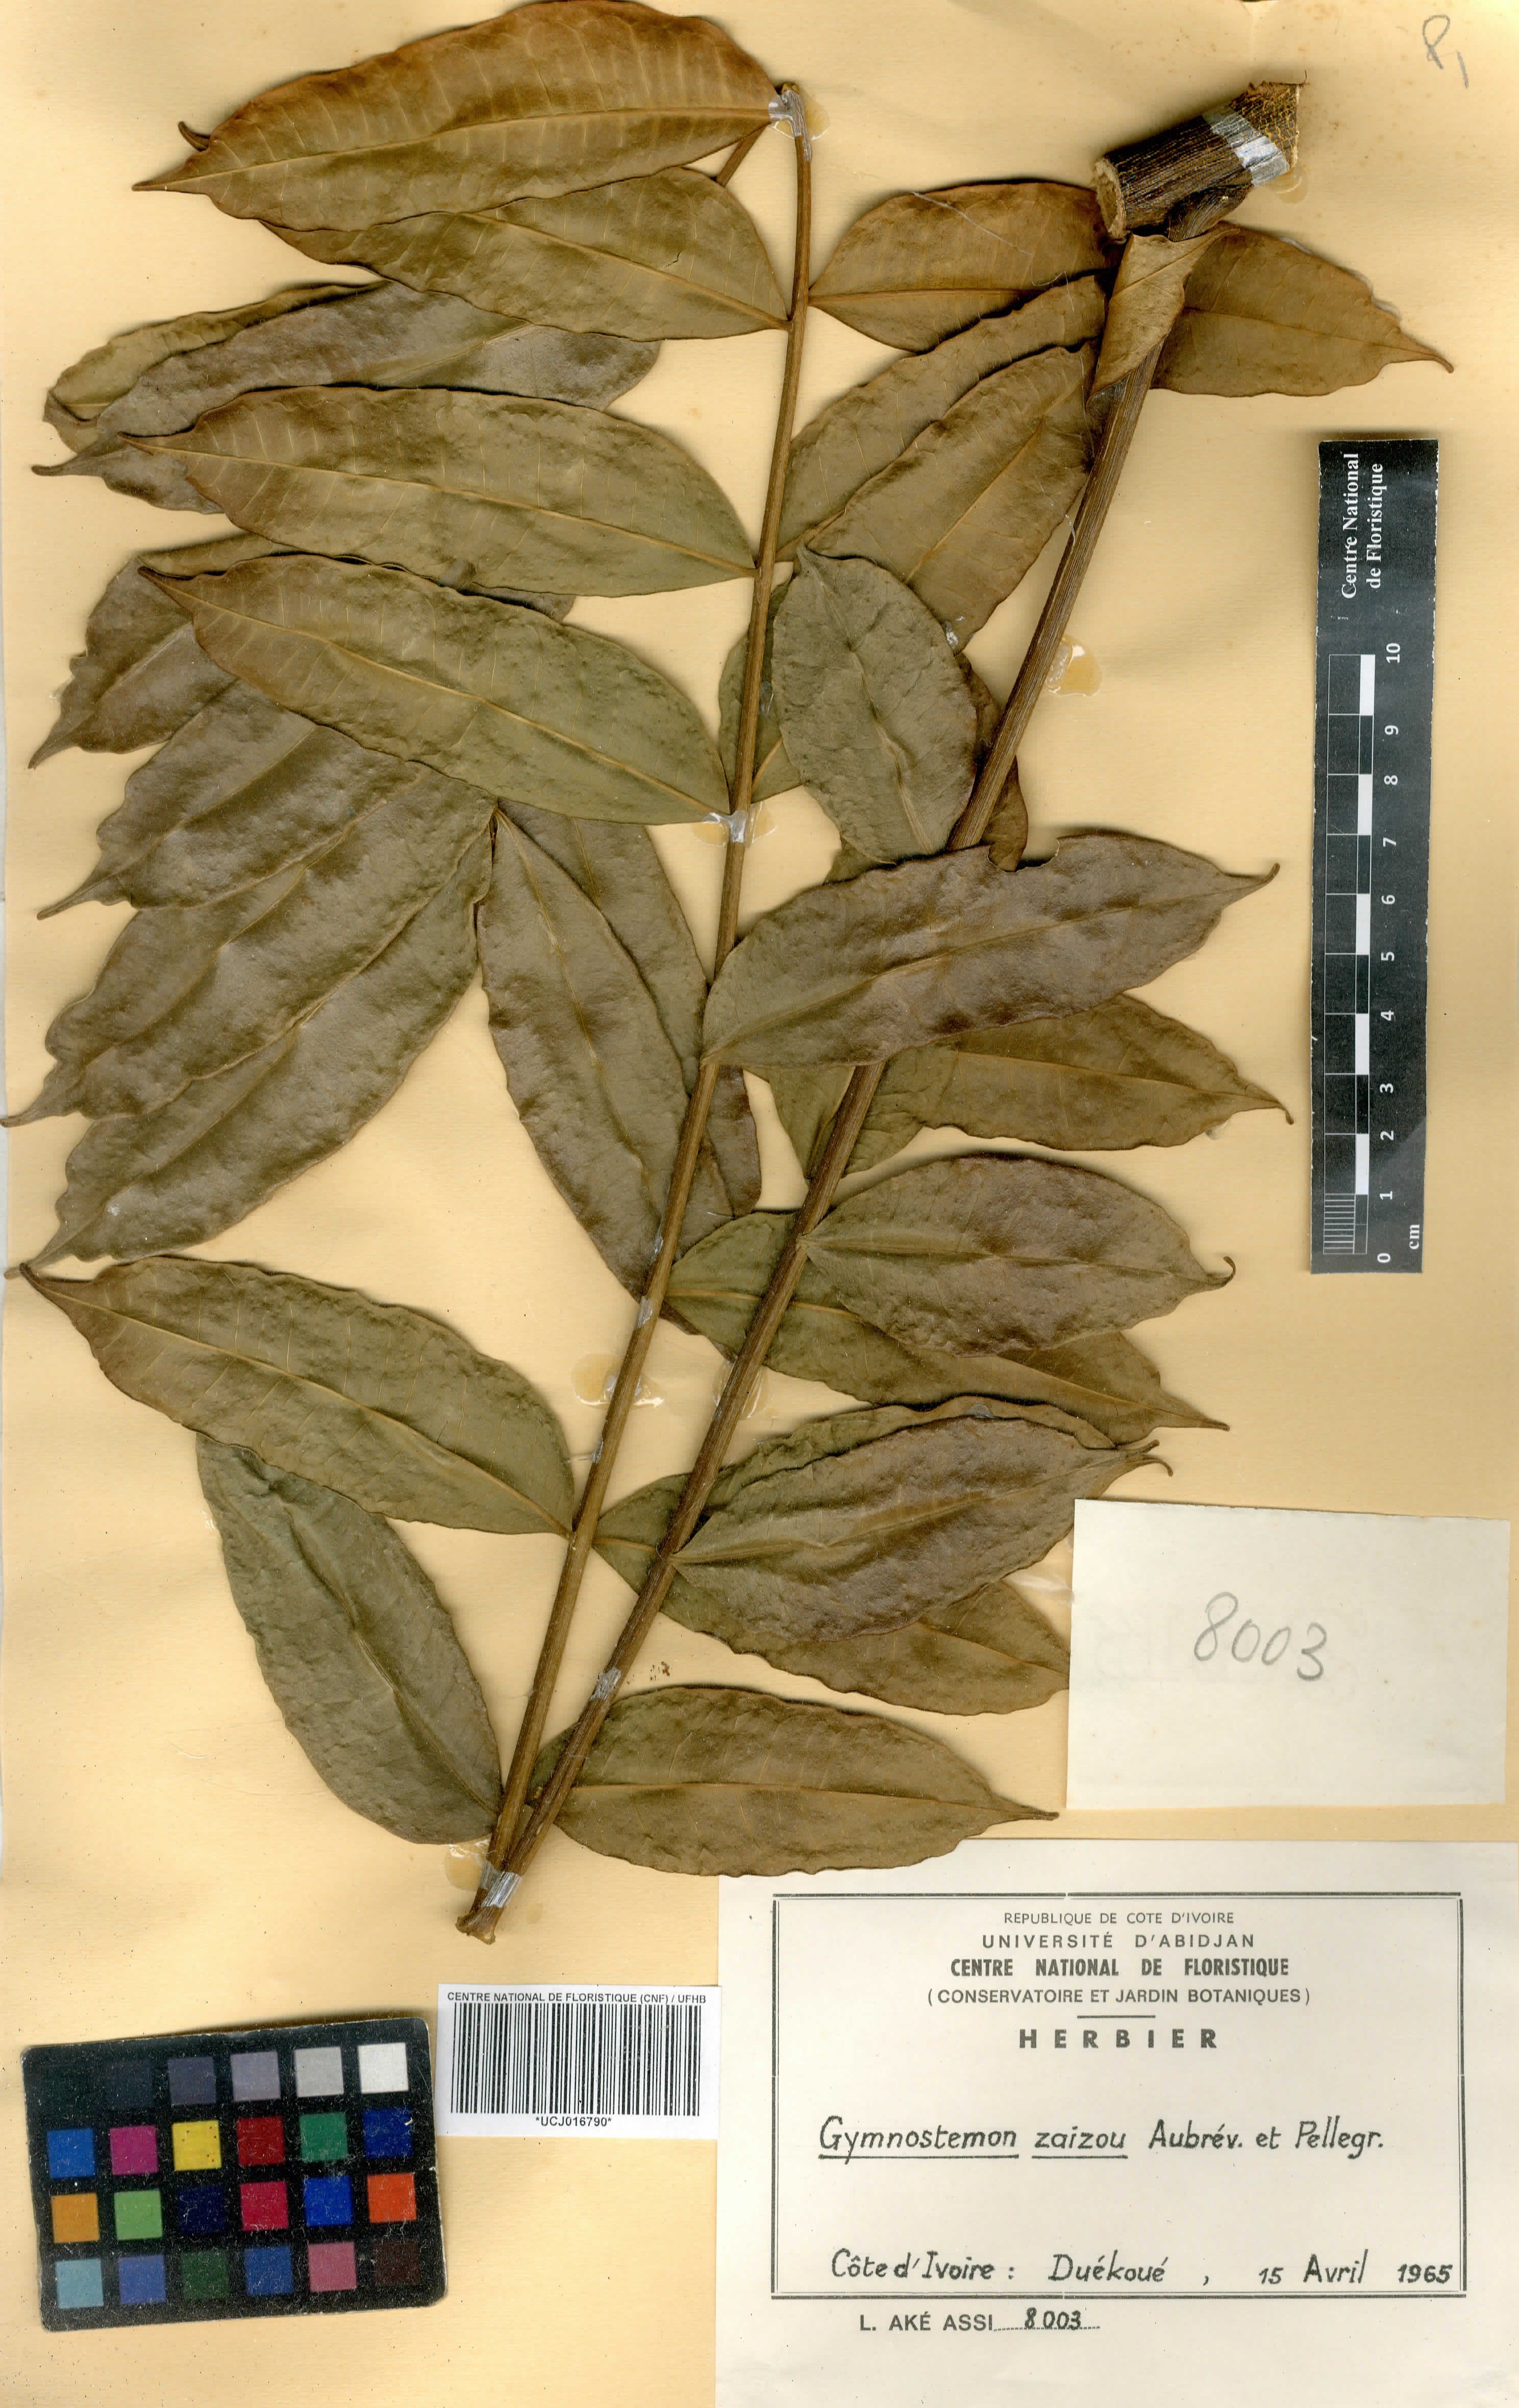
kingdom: Plantae
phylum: Tracheophyta
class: Magnoliopsida
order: Sapindales
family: Simaroubaceae
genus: Gymnostemon
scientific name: Gymnostemon zaizou
